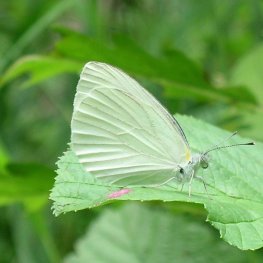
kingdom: Animalia
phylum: Arthropoda
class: Insecta
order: Lepidoptera
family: Pieridae
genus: Pieris
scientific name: Pieris oleracea
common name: Mustard White
